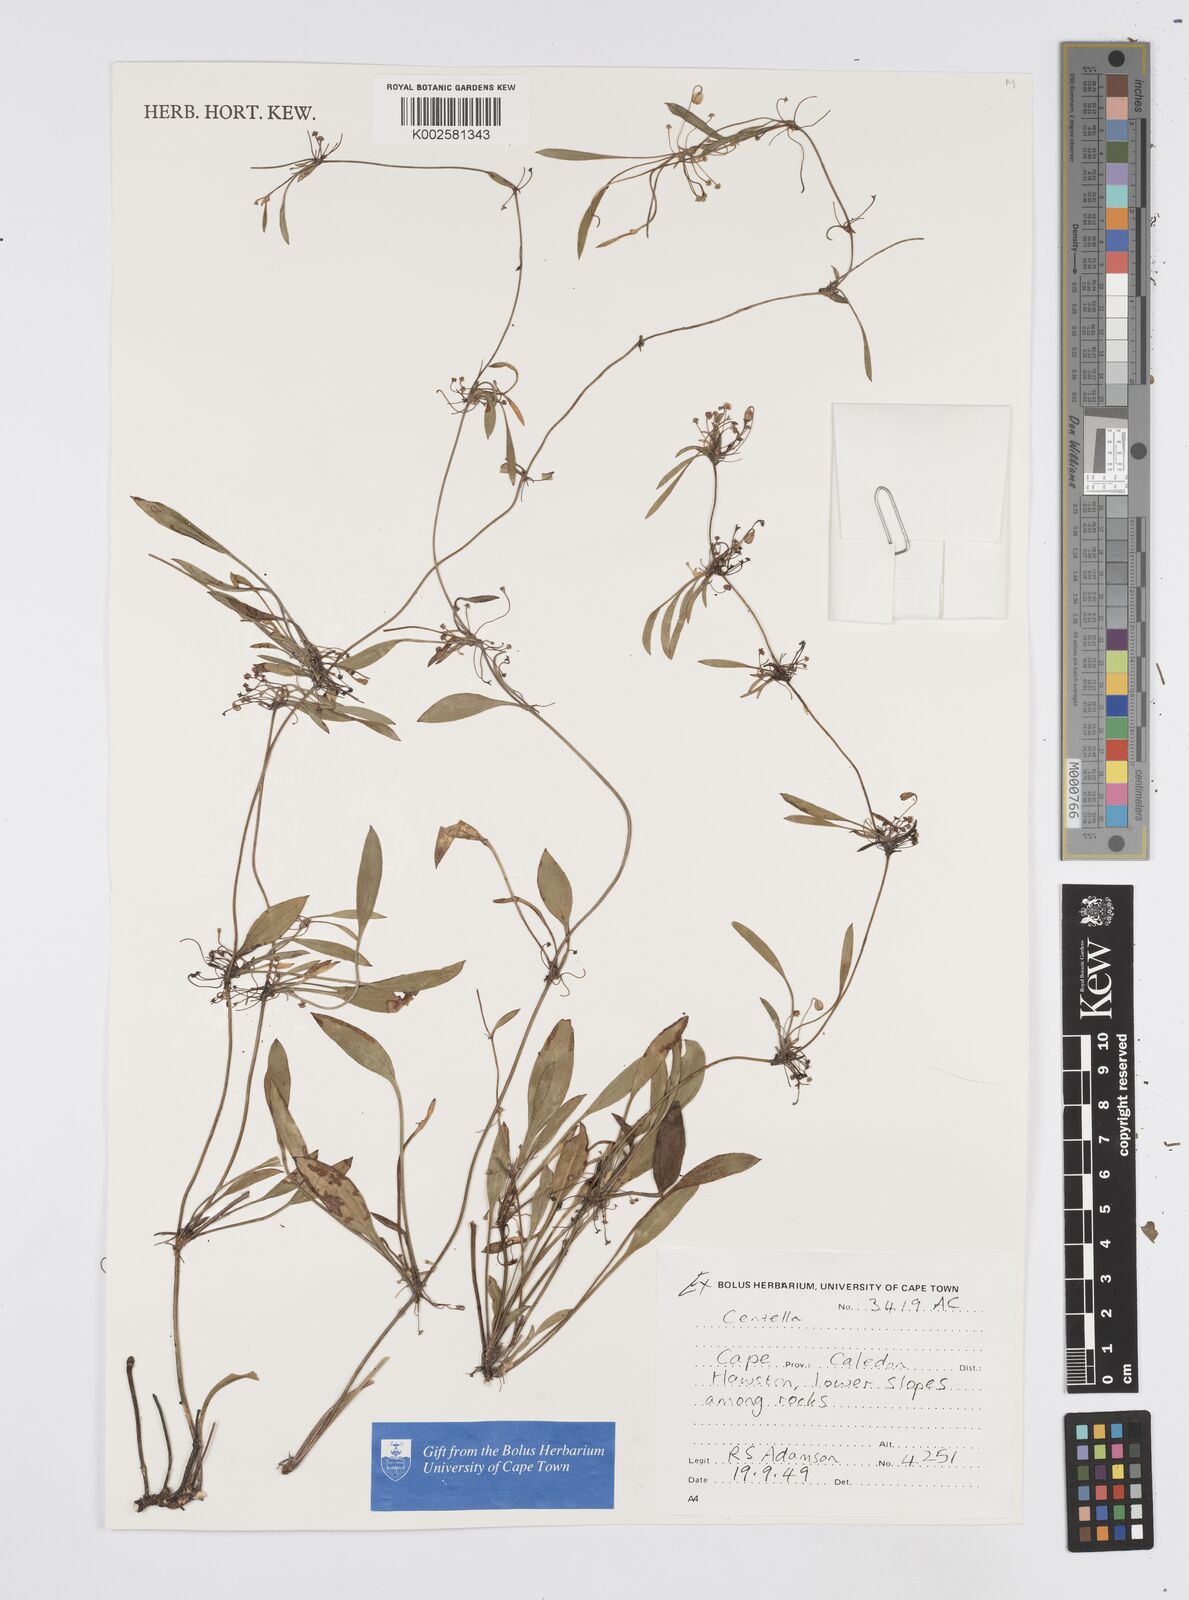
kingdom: Plantae
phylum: Tracheophyta
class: Magnoliopsida
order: Apiales
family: Apiaceae
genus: Centella
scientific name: Centella
